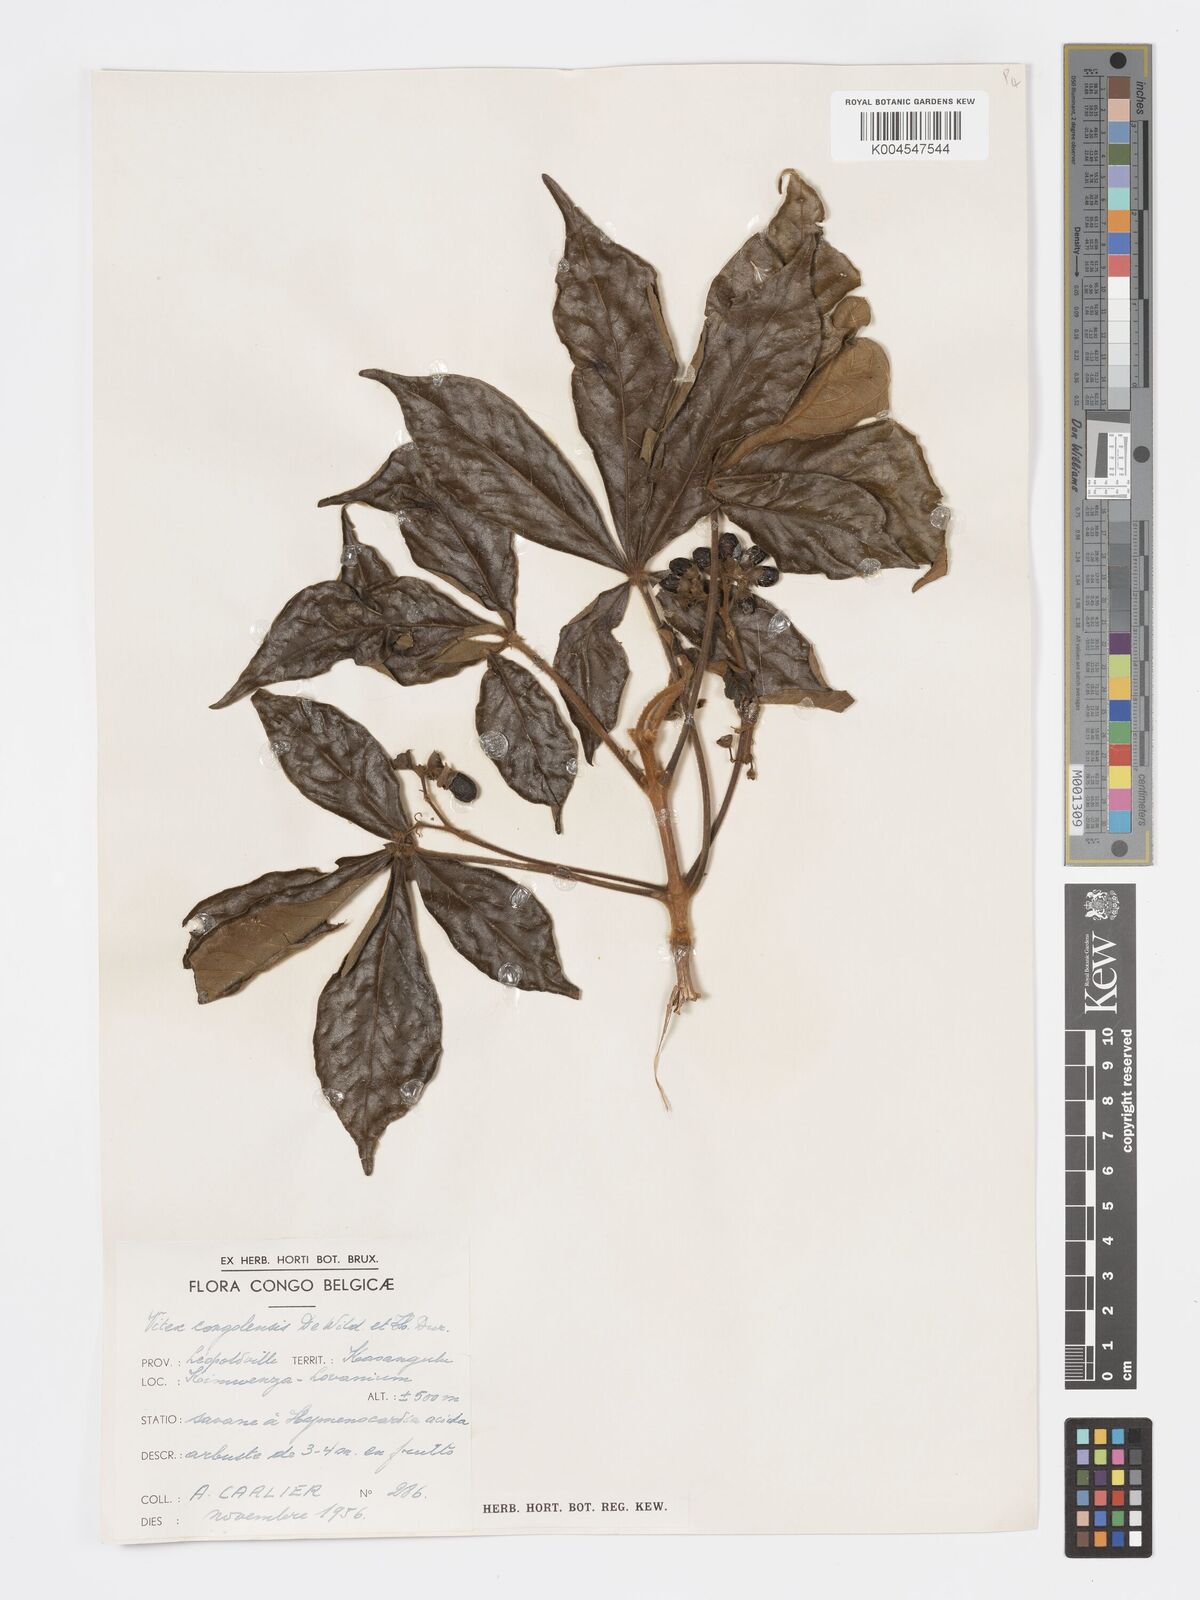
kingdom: Plantae
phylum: Tracheophyta
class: Magnoliopsida
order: Lamiales
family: Lamiaceae
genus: Vitex
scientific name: Vitex congolensis
